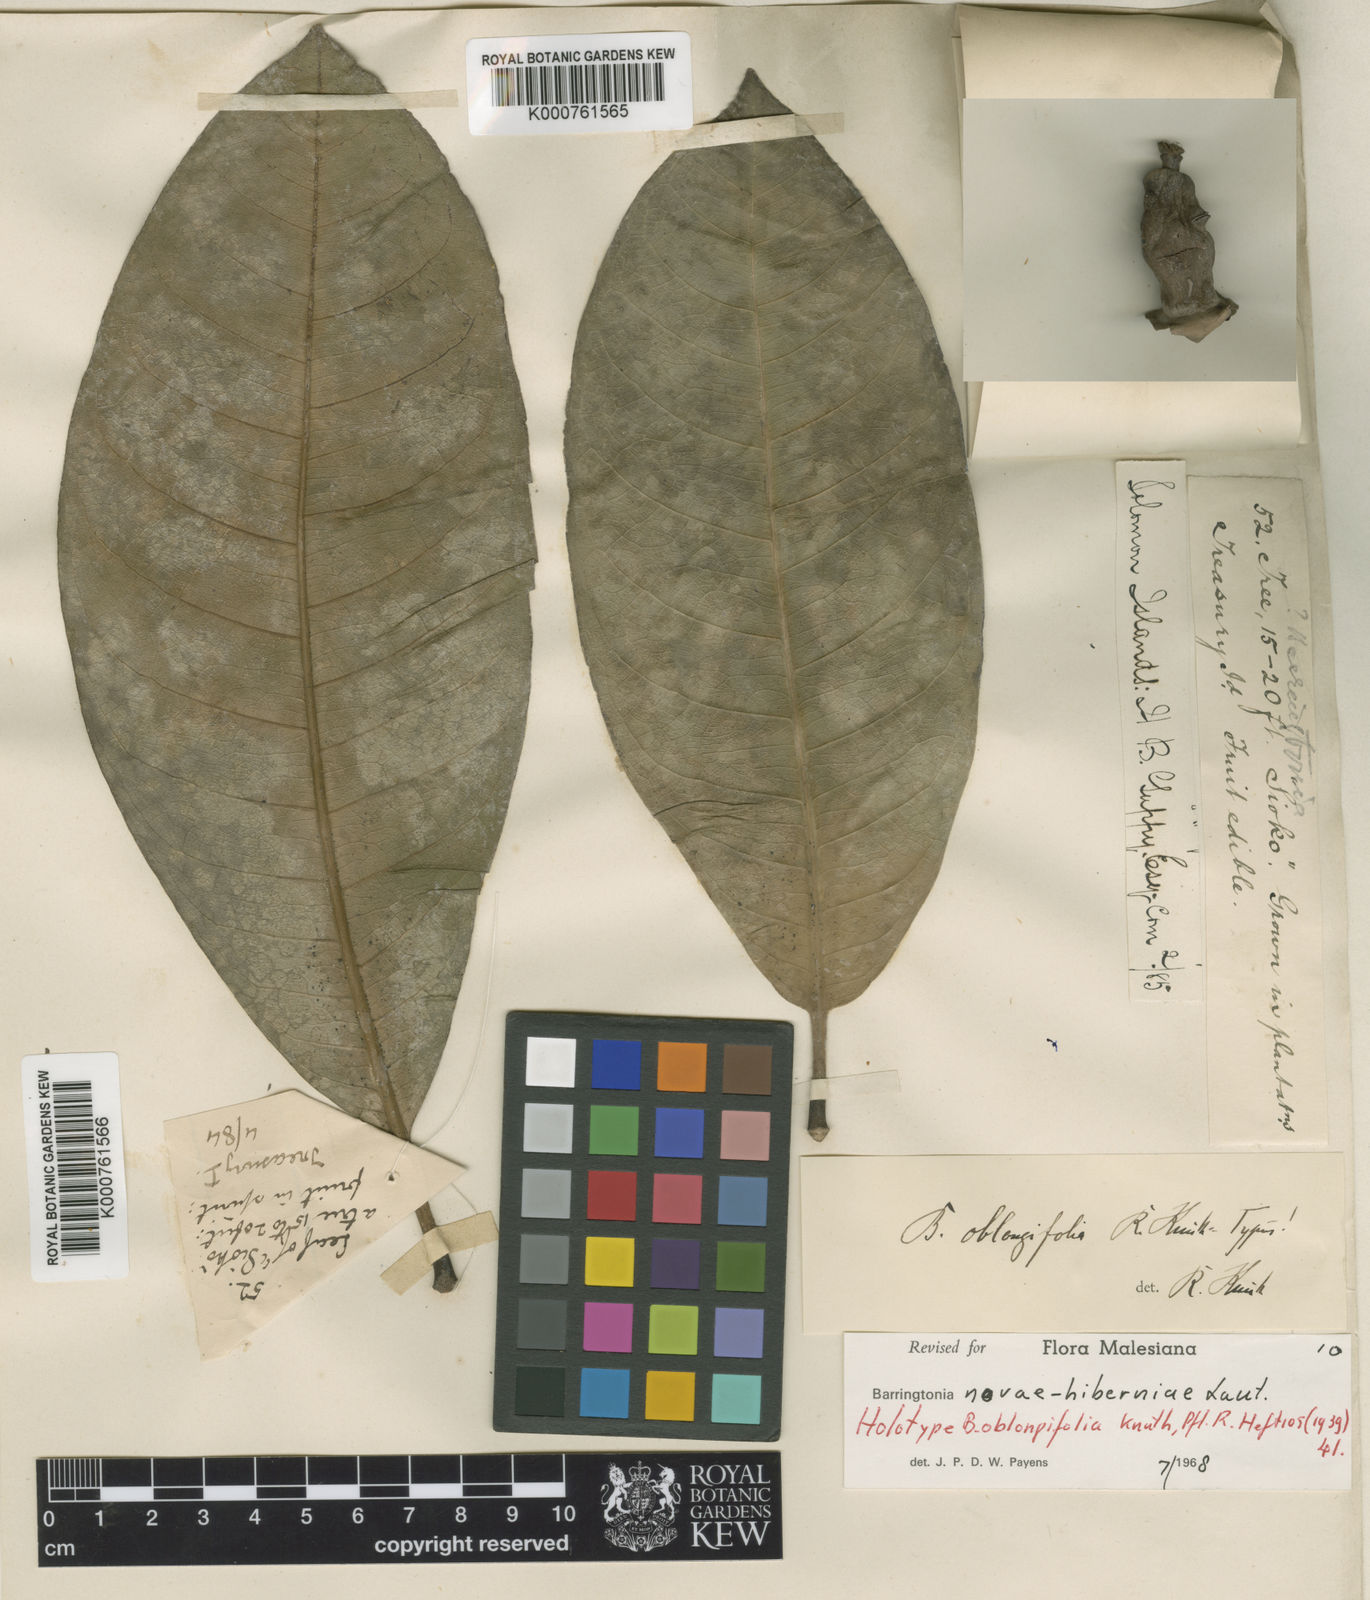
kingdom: Plantae
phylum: Tracheophyta
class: Magnoliopsida
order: Ericales
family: Lecythidaceae
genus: Barringtonia
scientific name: Barringtonia novae-hiberniae
